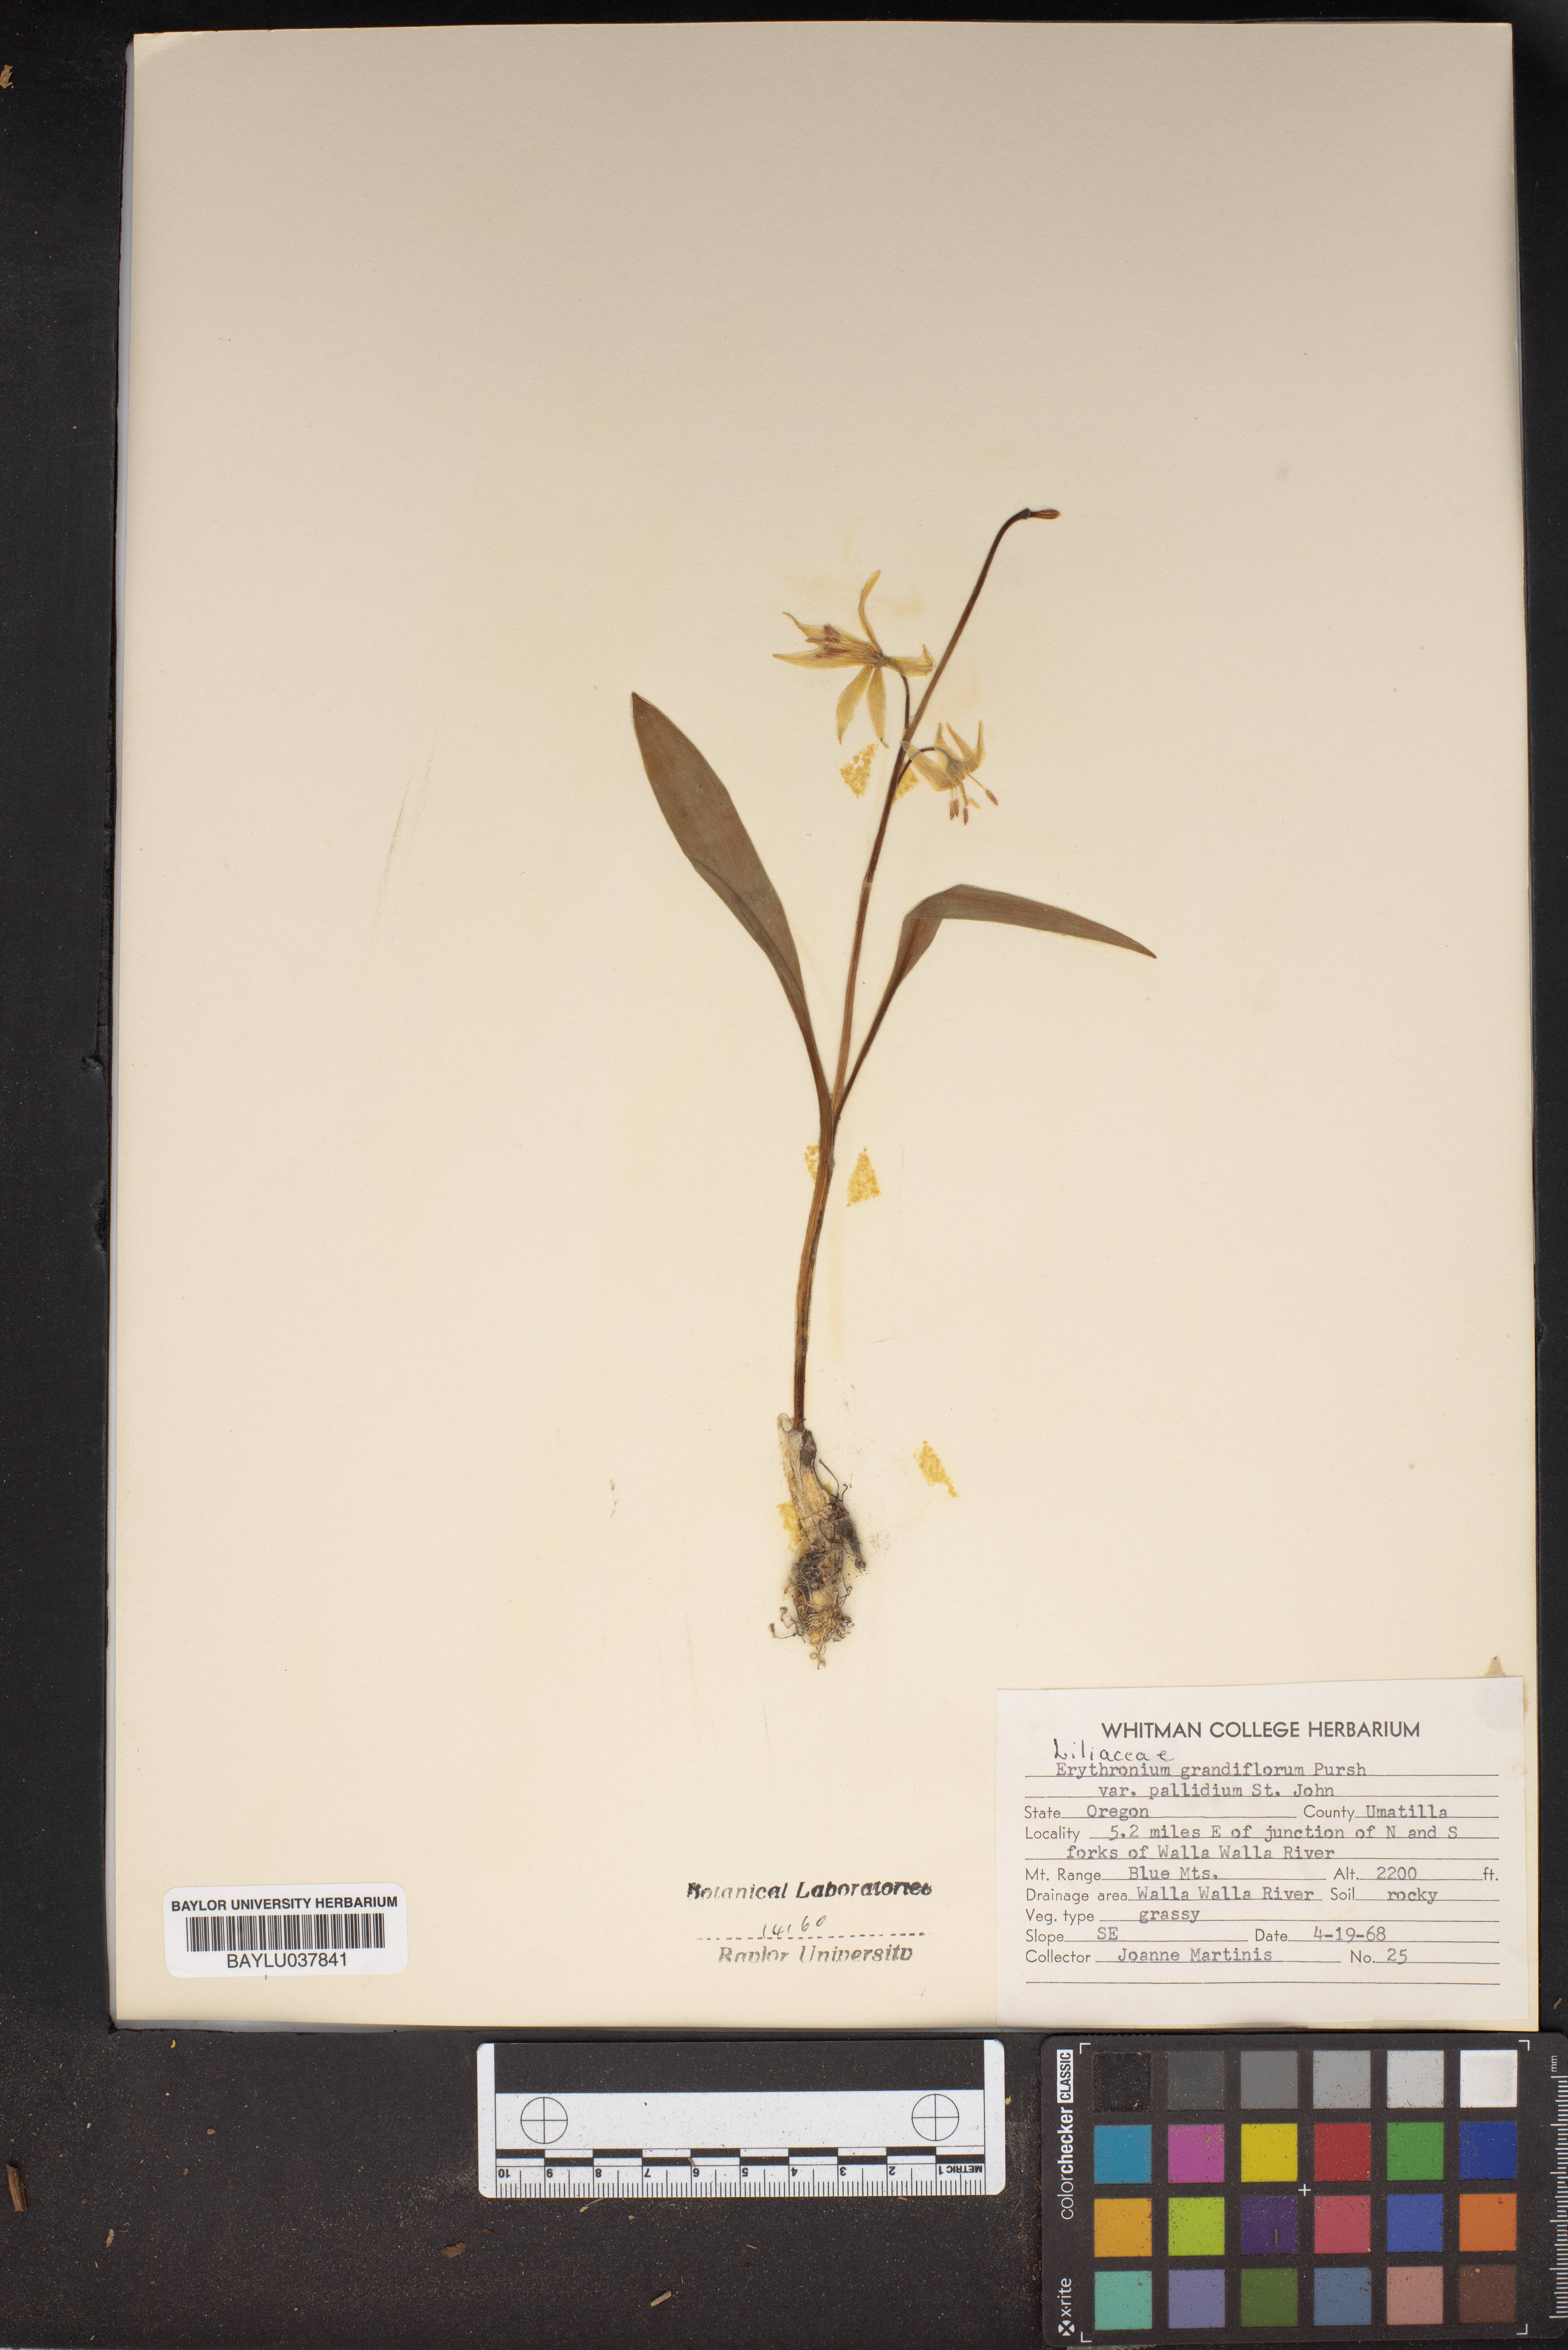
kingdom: Plantae
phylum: Tracheophyta
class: Liliopsida
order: Liliales
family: Liliaceae
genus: Erythronium
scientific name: Erythronium grandiflorum
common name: Avalanche-lily
